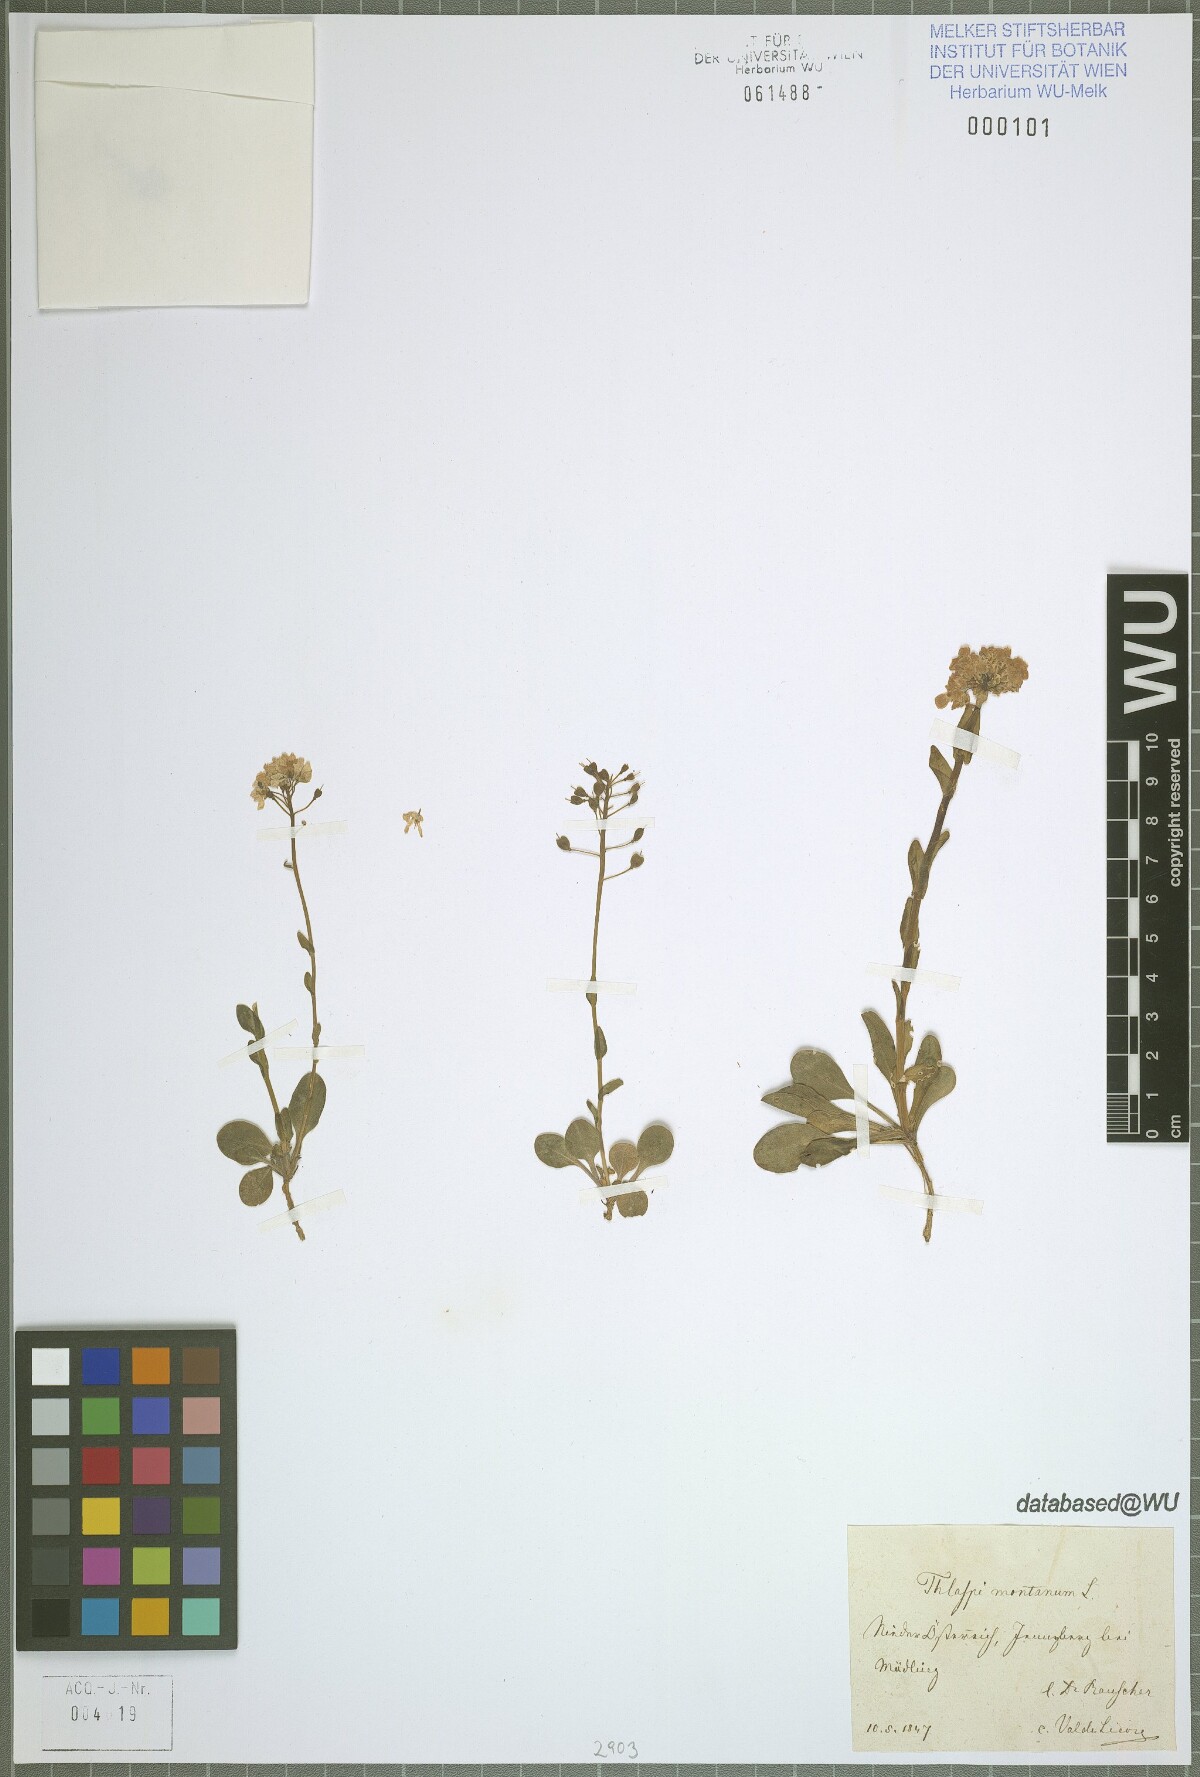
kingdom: Plantae
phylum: Tracheophyta
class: Magnoliopsida
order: Brassicales
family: Brassicaceae
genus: Noccaea
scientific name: Noccaea montana
